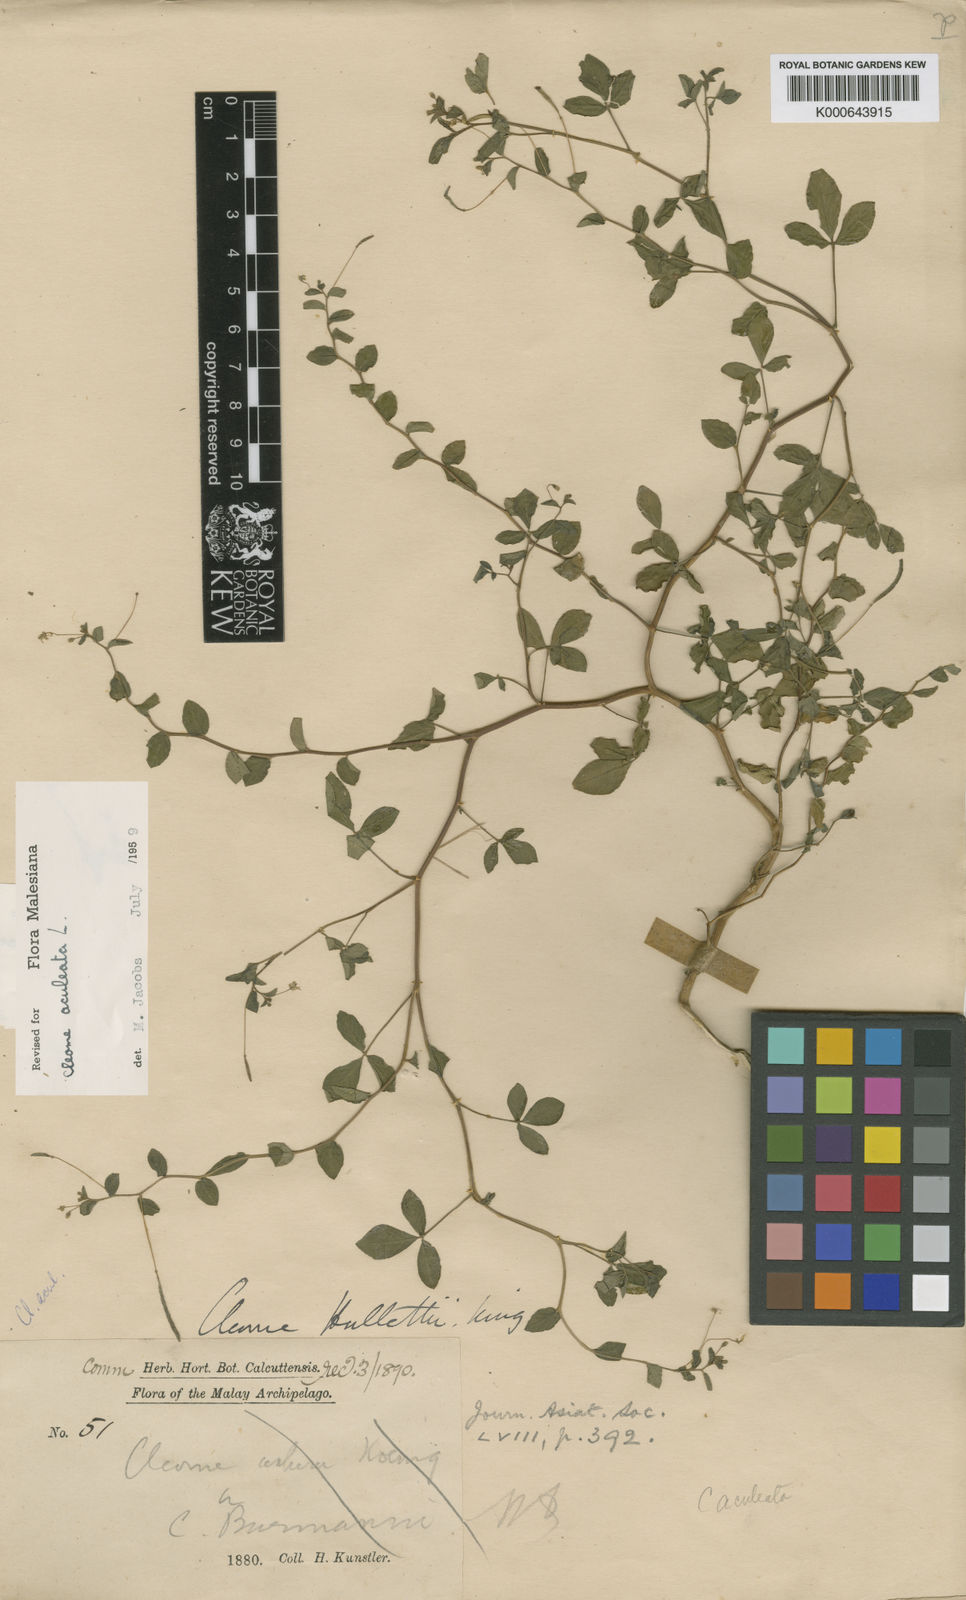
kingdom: Plantae
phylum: Tracheophyta
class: Magnoliopsida
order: Brassicales
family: Cleomaceae
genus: Tarenaya
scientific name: Tarenaya aculeata
